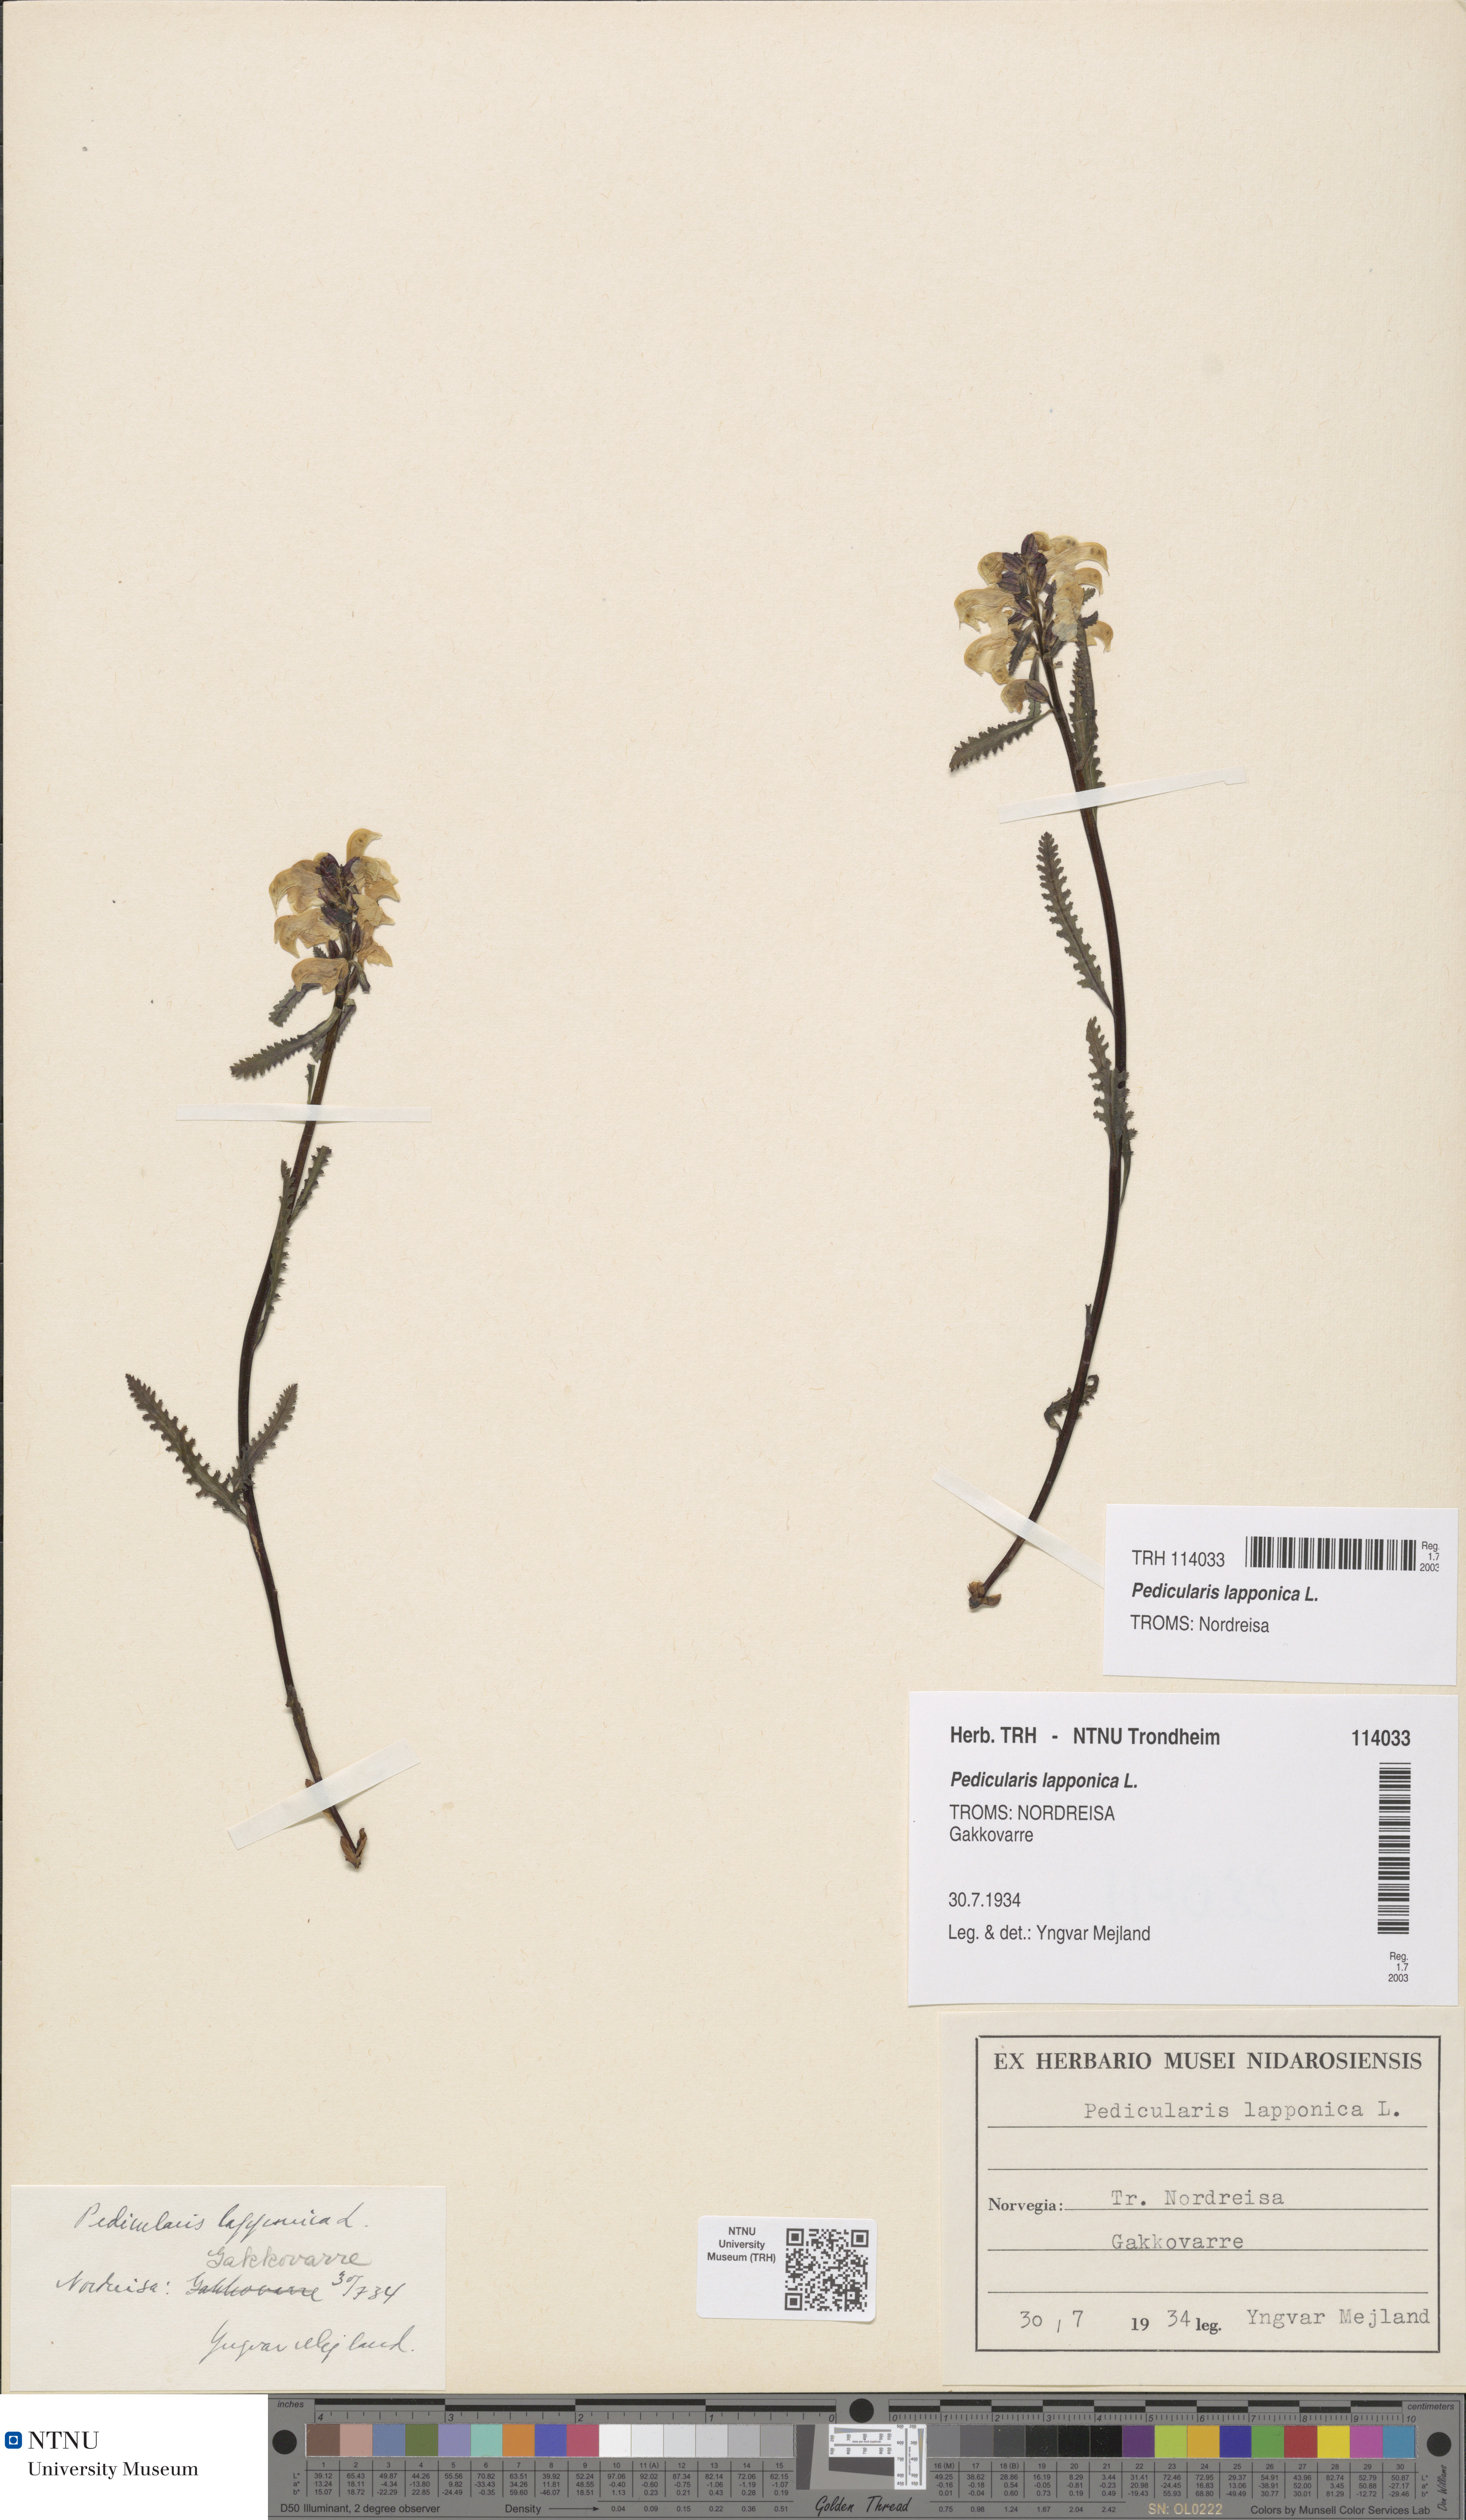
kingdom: Plantae
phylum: Tracheophyta
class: Magnoliopsida
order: Lamiales
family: Orobanchaceae
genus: Pedicularis
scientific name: Pedicularis lapponica
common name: Lapland lousewort
